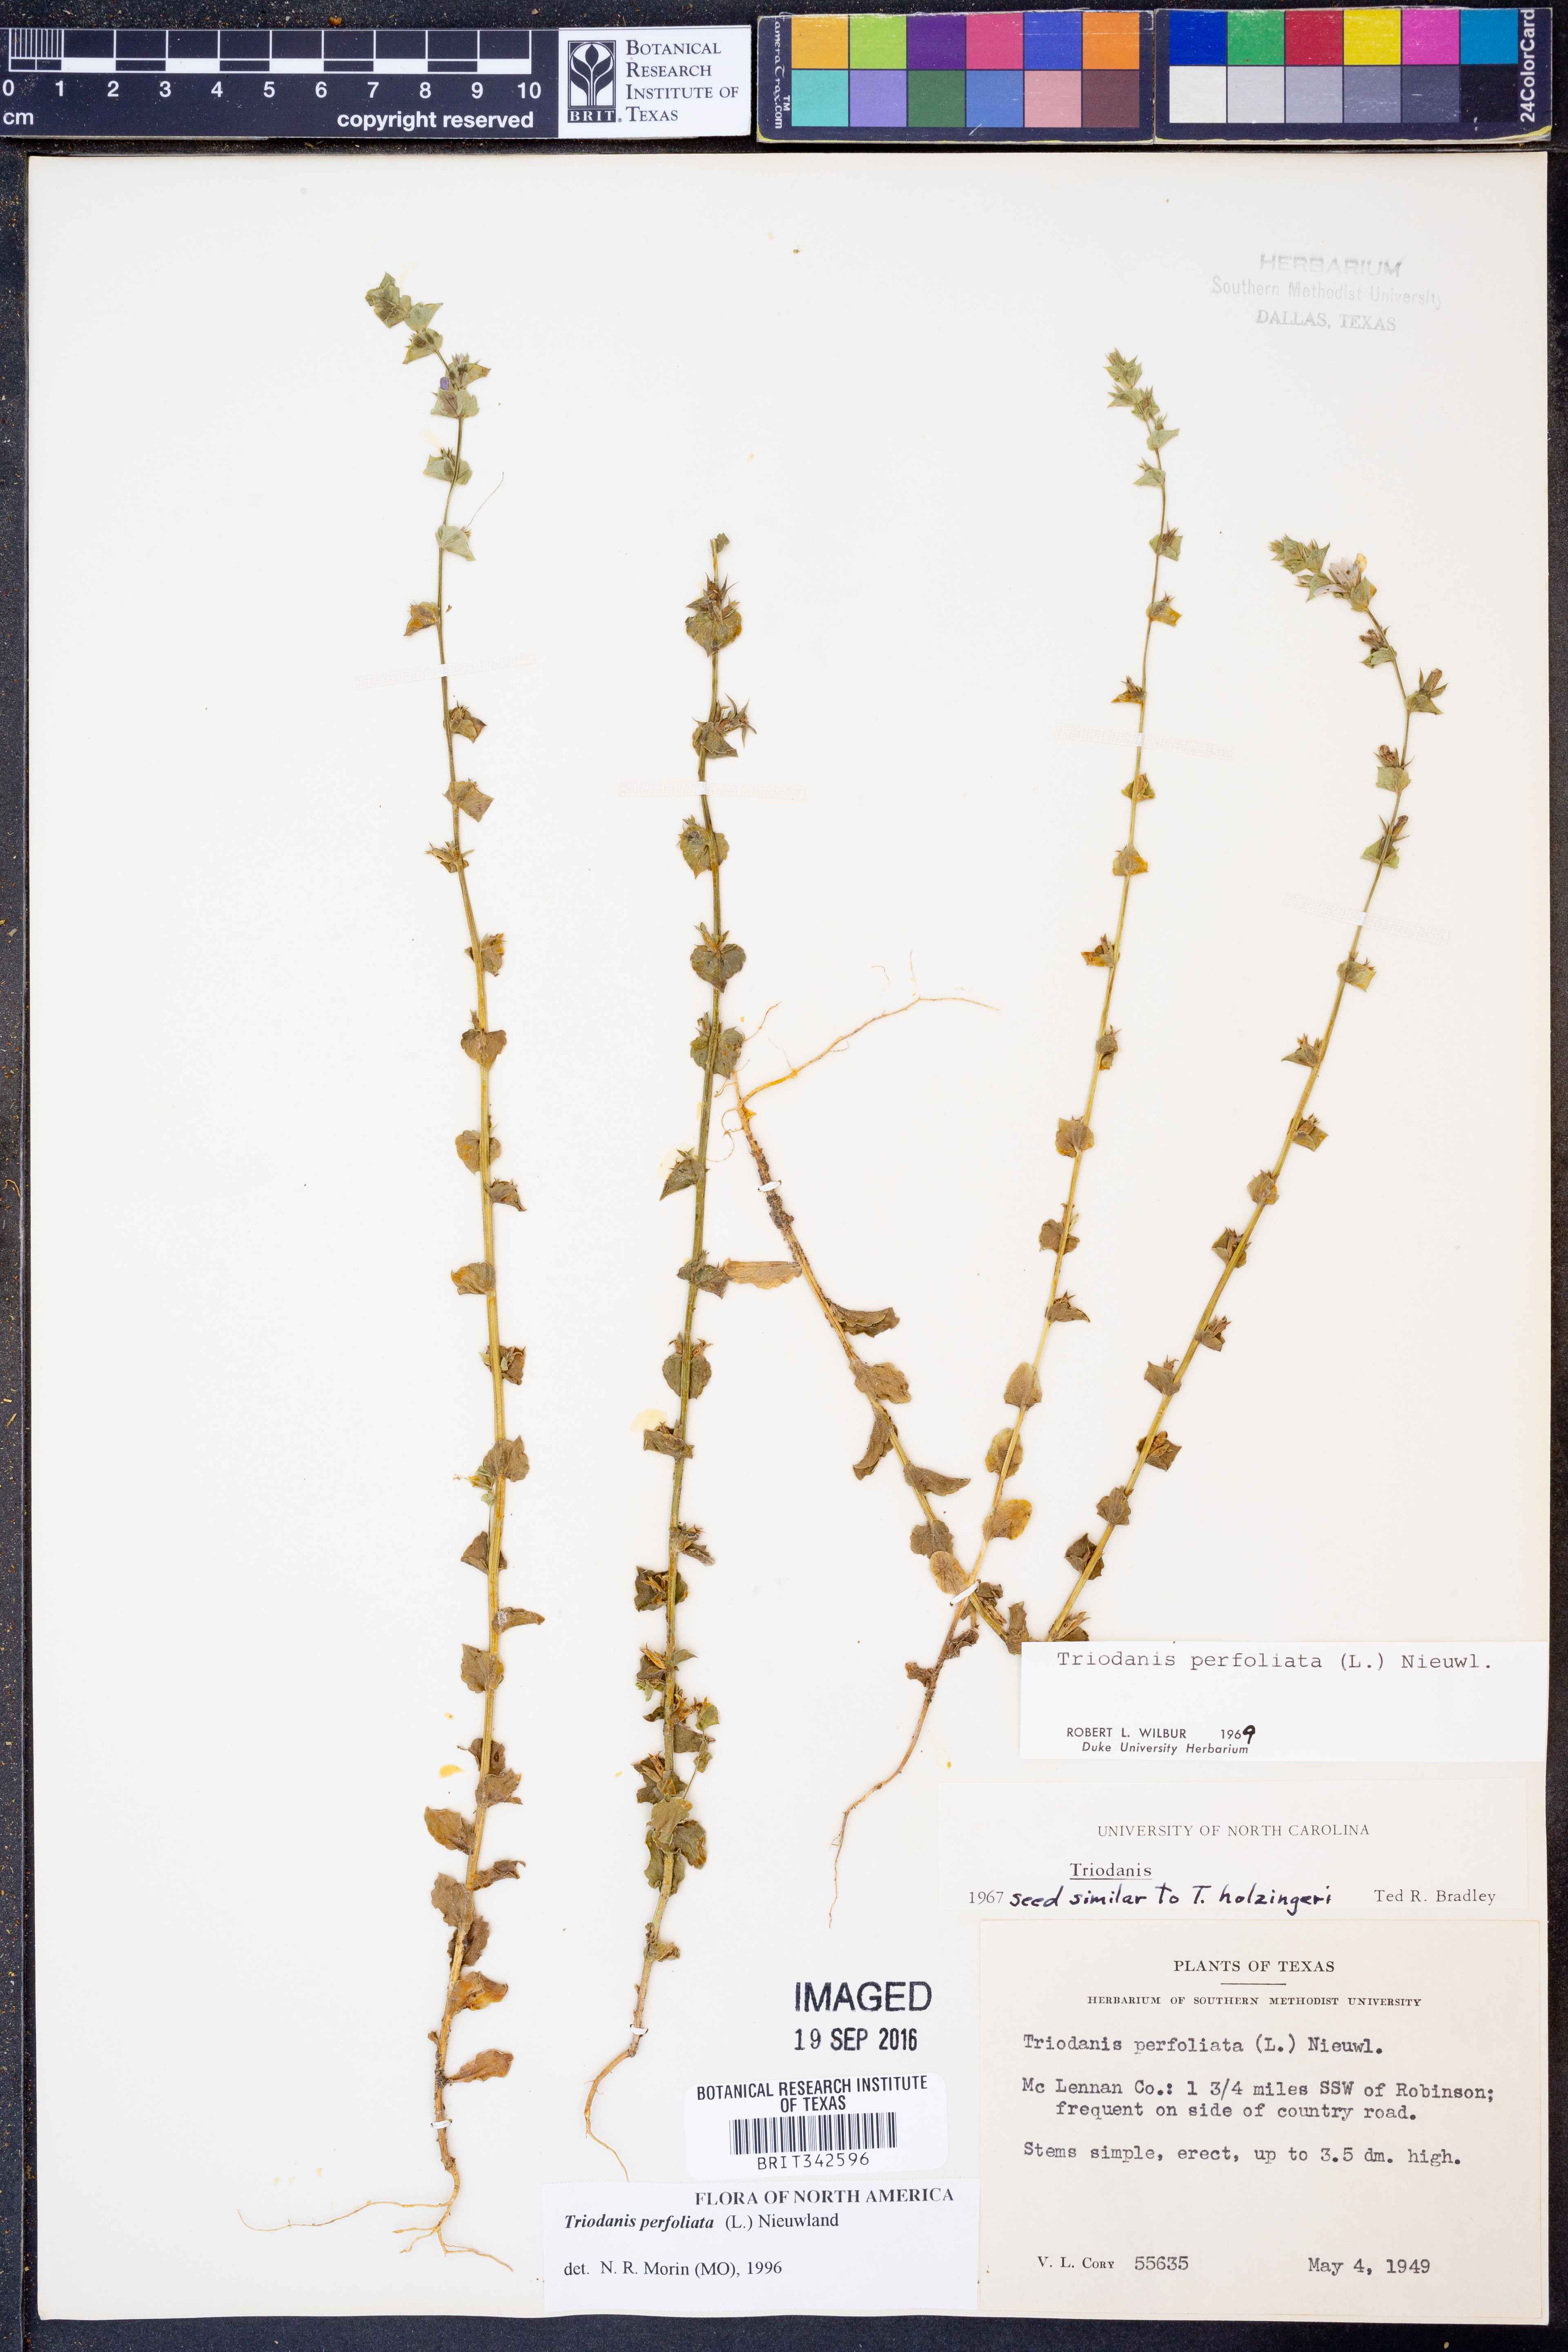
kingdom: Plantae
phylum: Tracheophyta
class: Magnoliopsida
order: Asterales
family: Campanulaceae
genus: Triodanis
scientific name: Triodanis perfoliata
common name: Clasping venus' looking-glass
